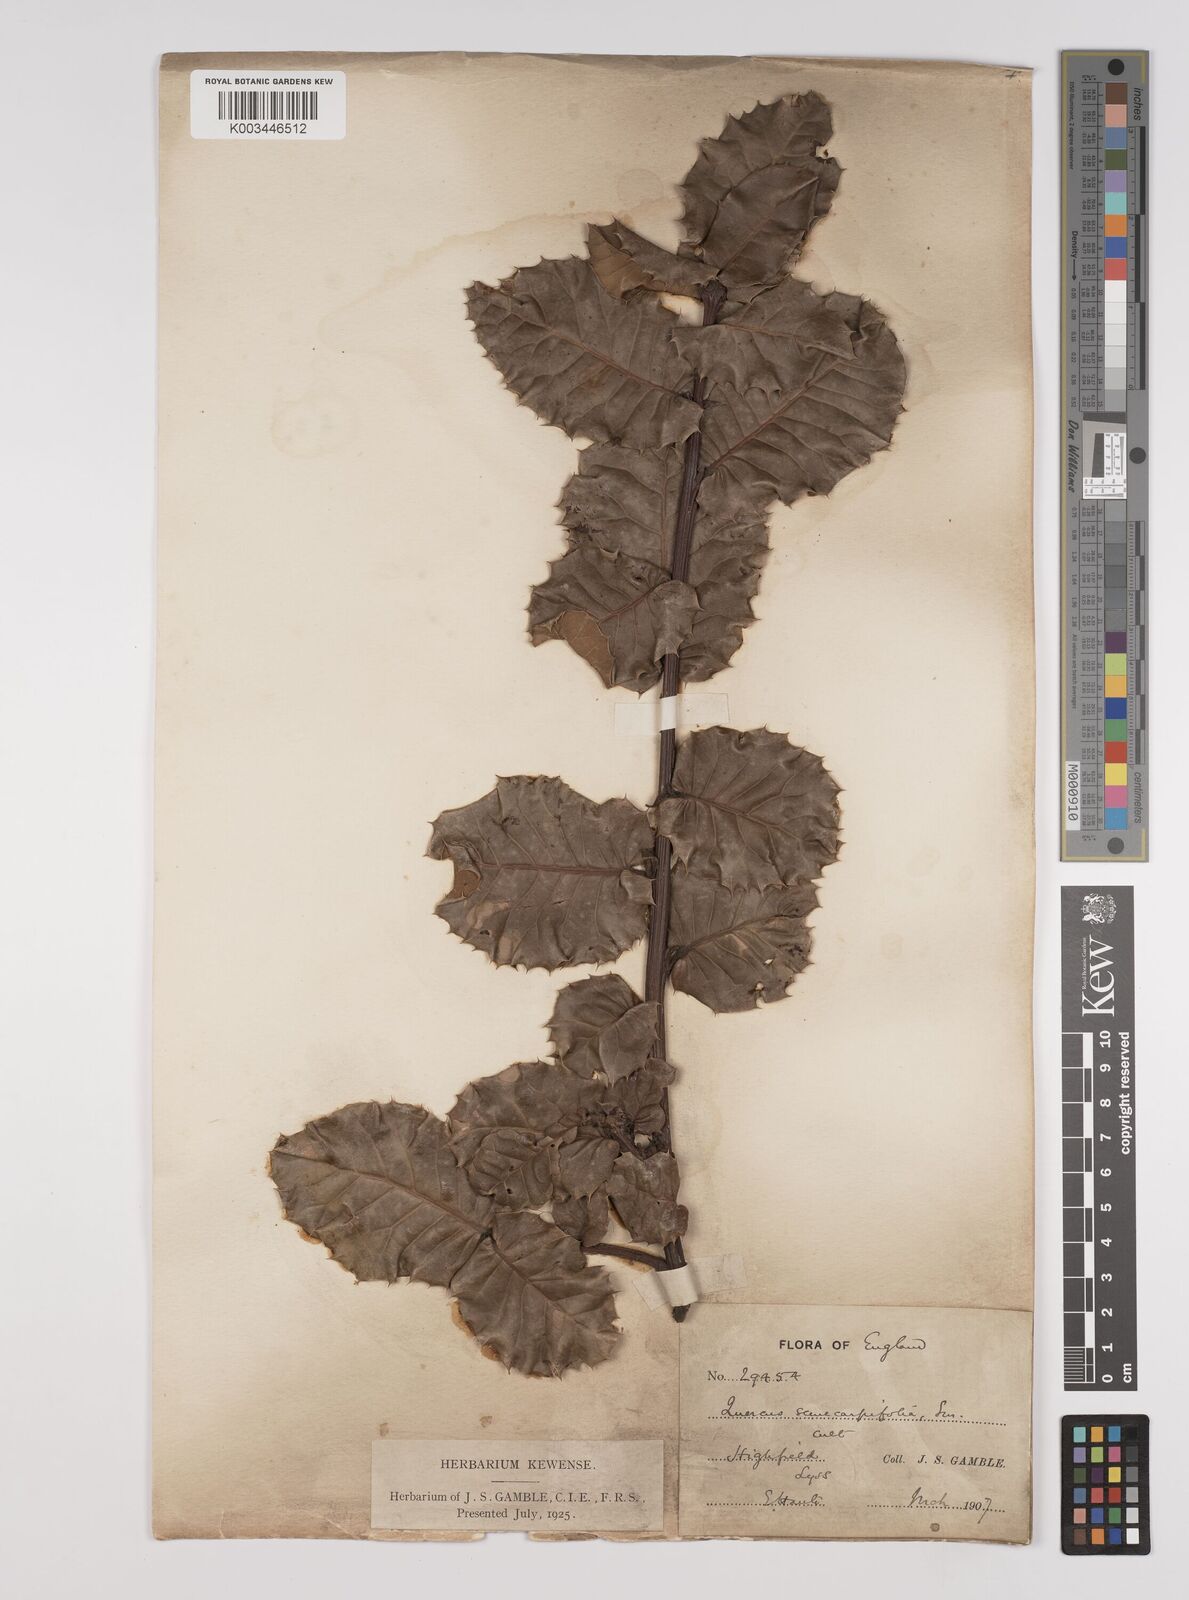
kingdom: Plantae
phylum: Tracheophyta
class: Magnoliopsida
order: Fagales
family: Fagaceae
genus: Quercus
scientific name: Quercus semecarpifolia
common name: Brown oak
